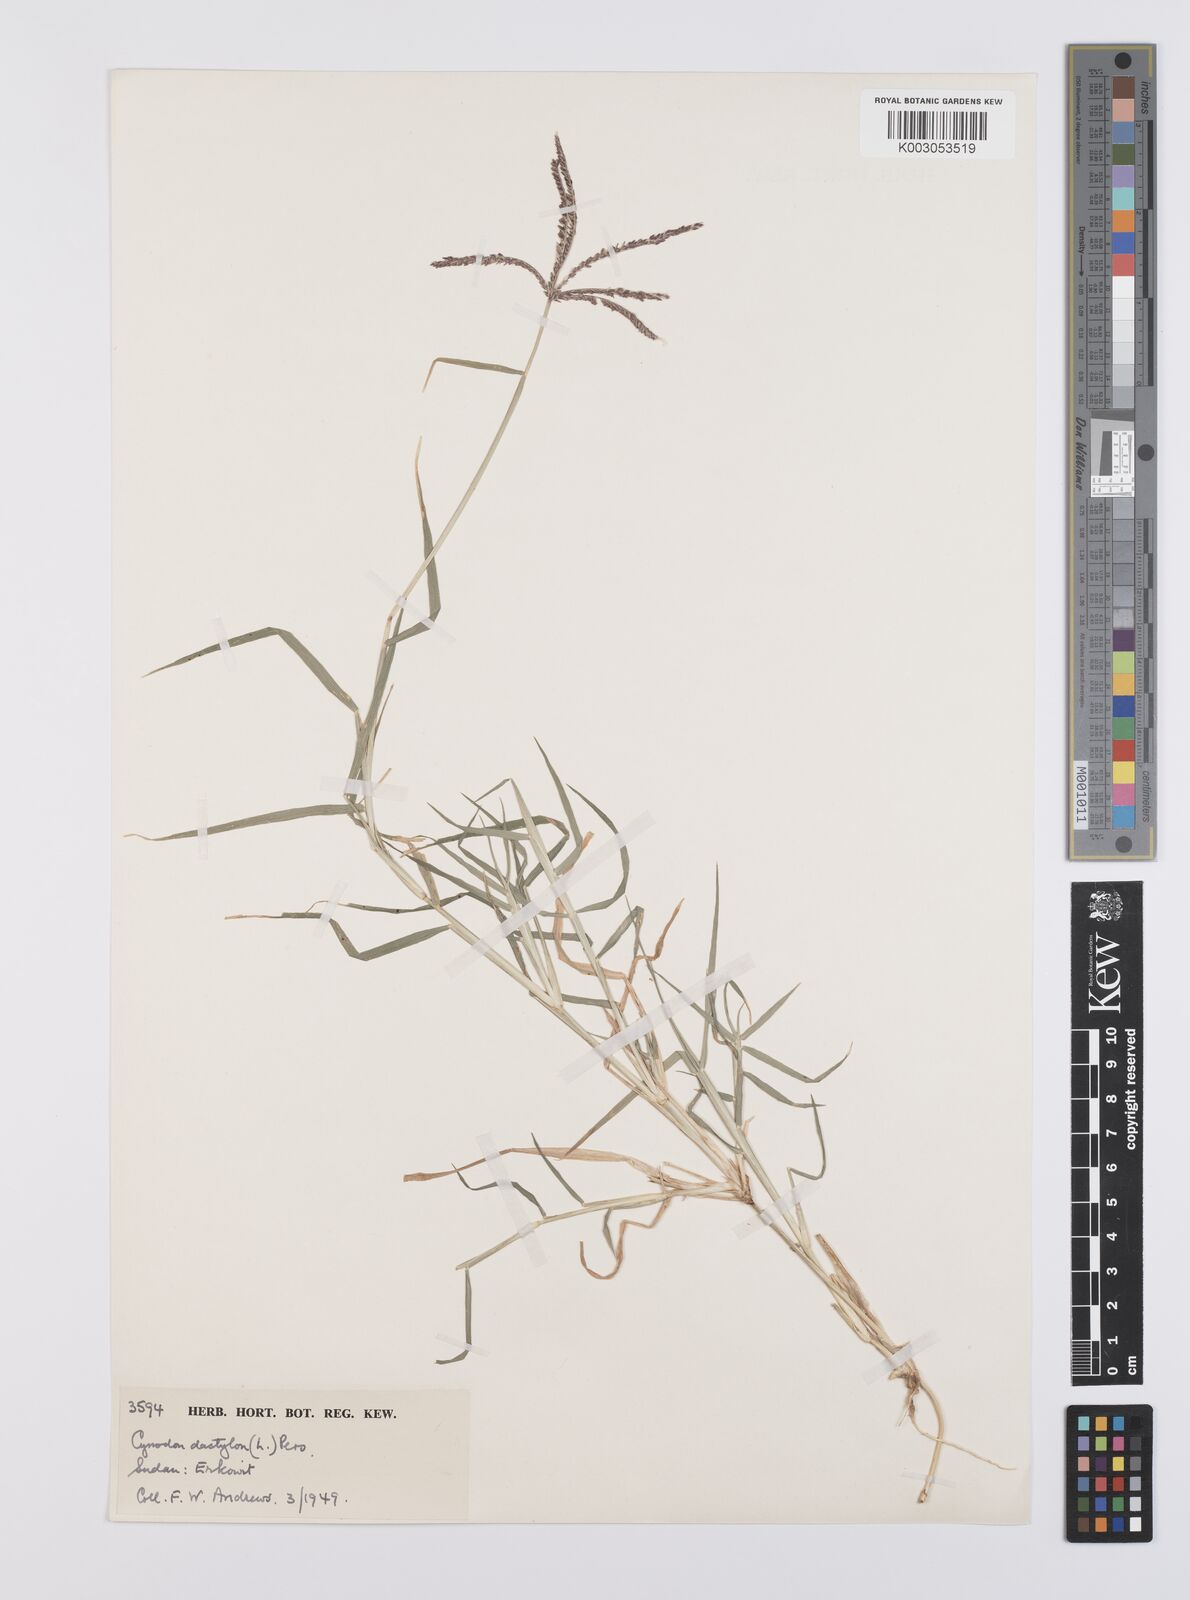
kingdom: Plantae
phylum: Tracheophyta
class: Liliopsida
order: Poales
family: Poaceae
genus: Cynodon
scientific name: Cynodon dactylon
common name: Bermuda grass
